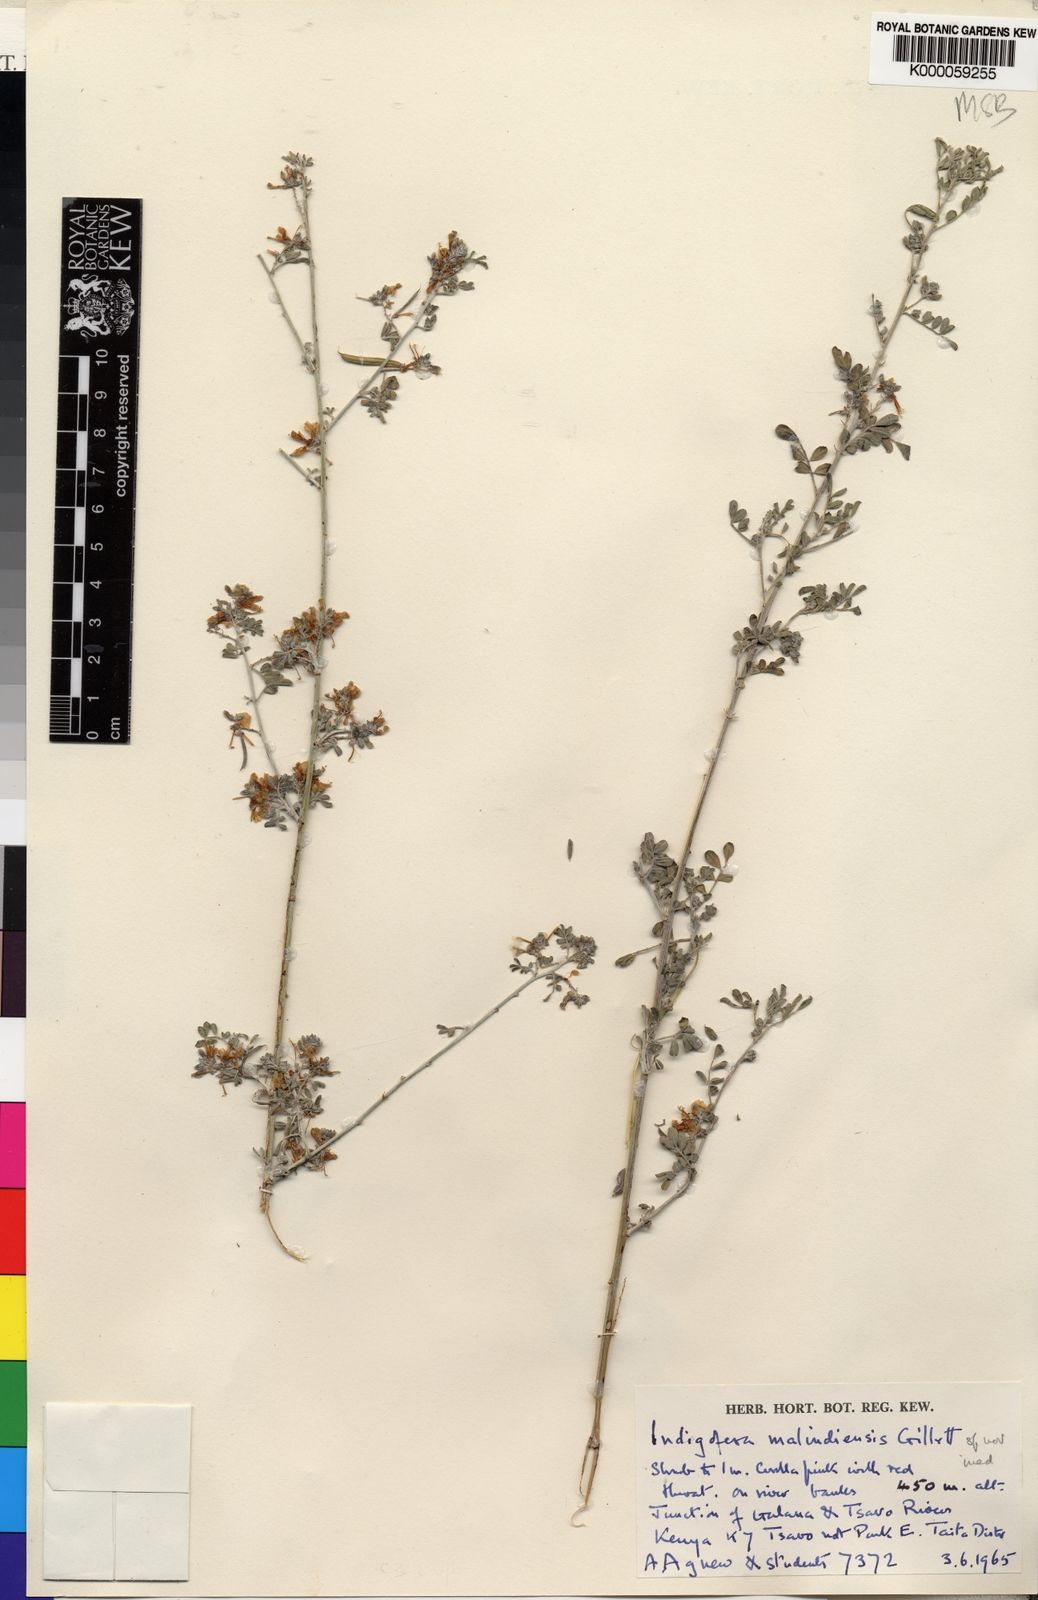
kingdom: Plantae
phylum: Tracheophyta
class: Magnoliopsida
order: Fabales
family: Fabaceae
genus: Indigofera
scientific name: Indigofera malindiensis
